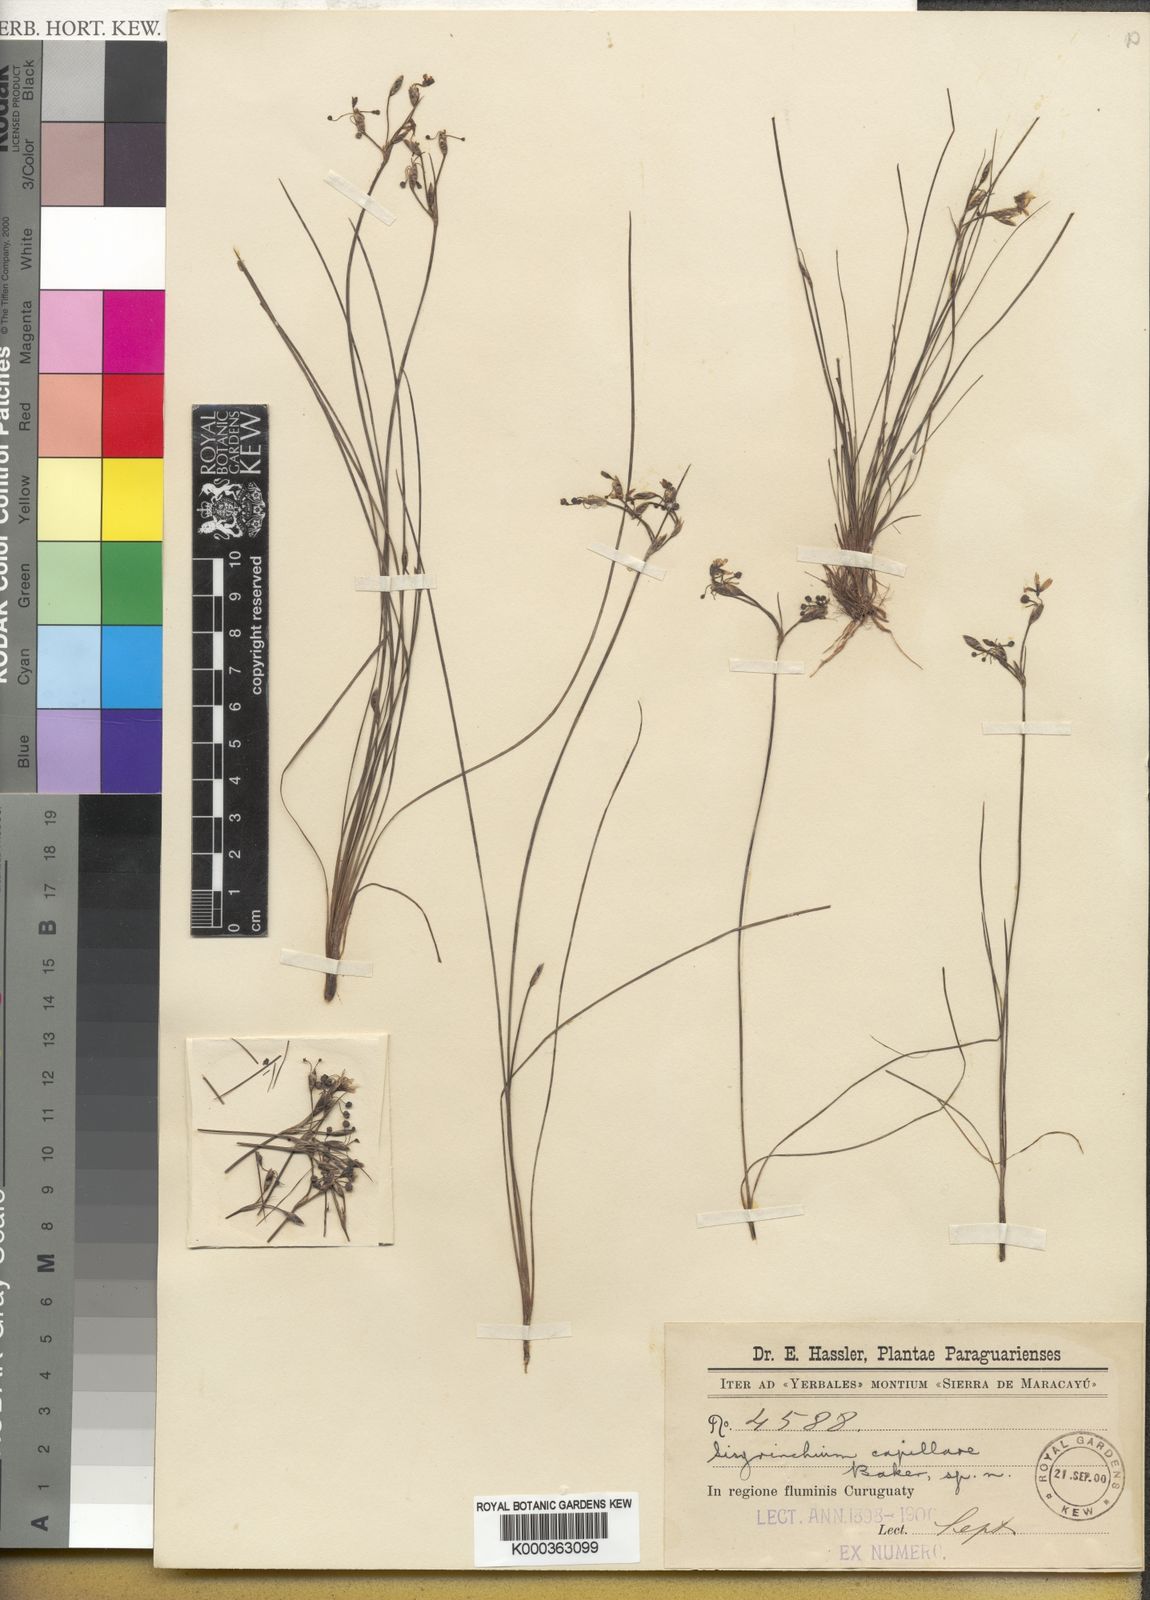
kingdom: Plantae
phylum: Tracheophyta
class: Liliopsida
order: Asparagales
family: Iridaceae
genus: Sisyrinchium
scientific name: Sisyrinchium commutatum
